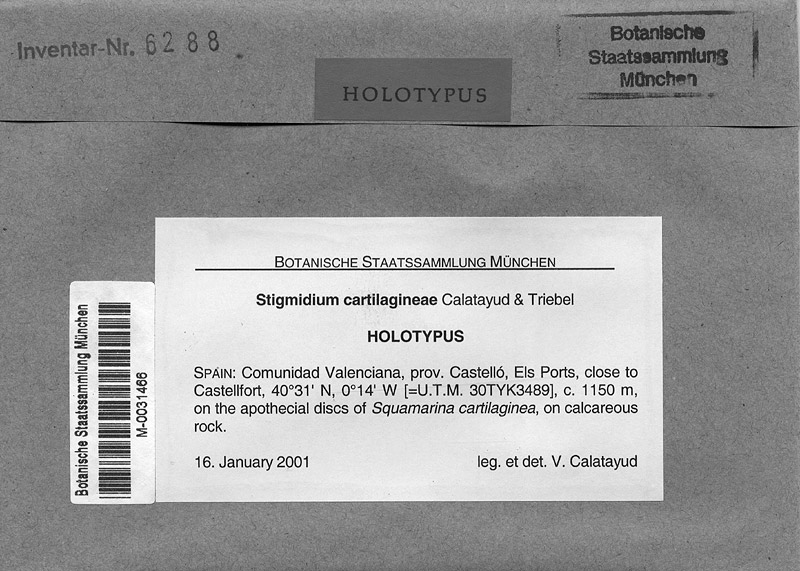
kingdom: Fungi
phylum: Ascomycota
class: Lecanoromycetes
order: Lecanorales
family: Stereocaulaceae
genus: Squamarina
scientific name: Squamarina cartilaginea
